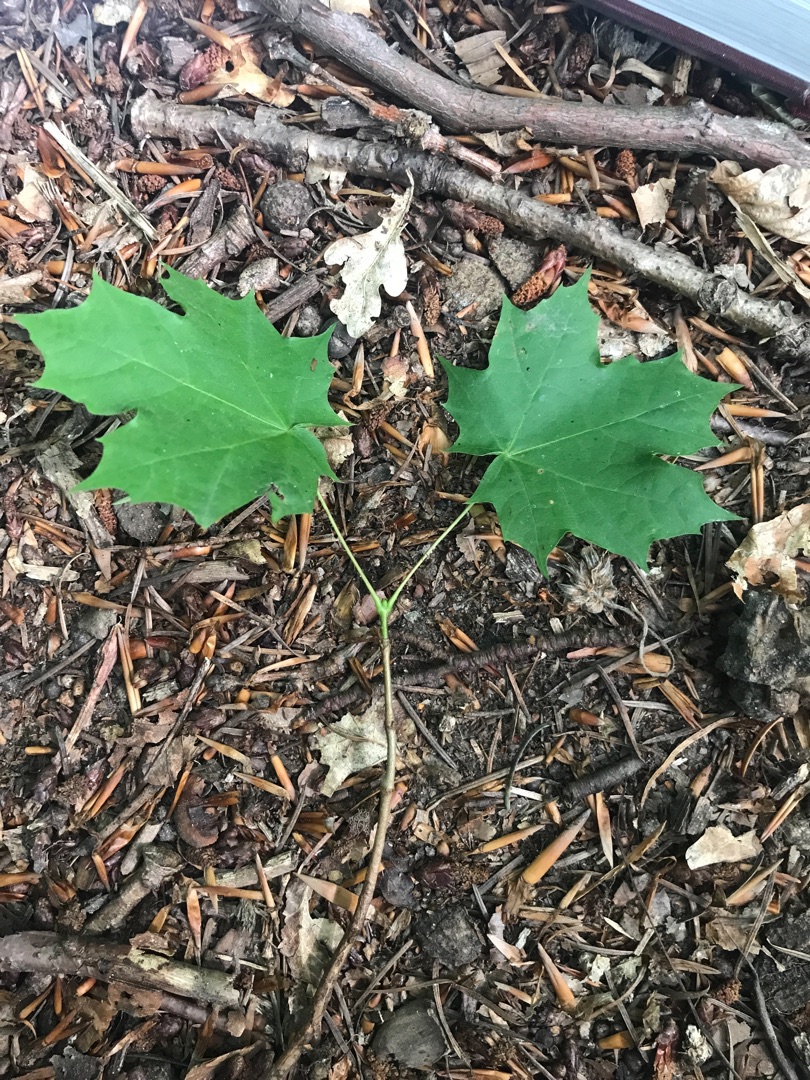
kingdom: Plantae
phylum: Tracheophyta
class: Magnoliopsida
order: Sapindales
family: Sapindaceae
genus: Acer
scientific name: Acer platanoides
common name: Spids-løn
